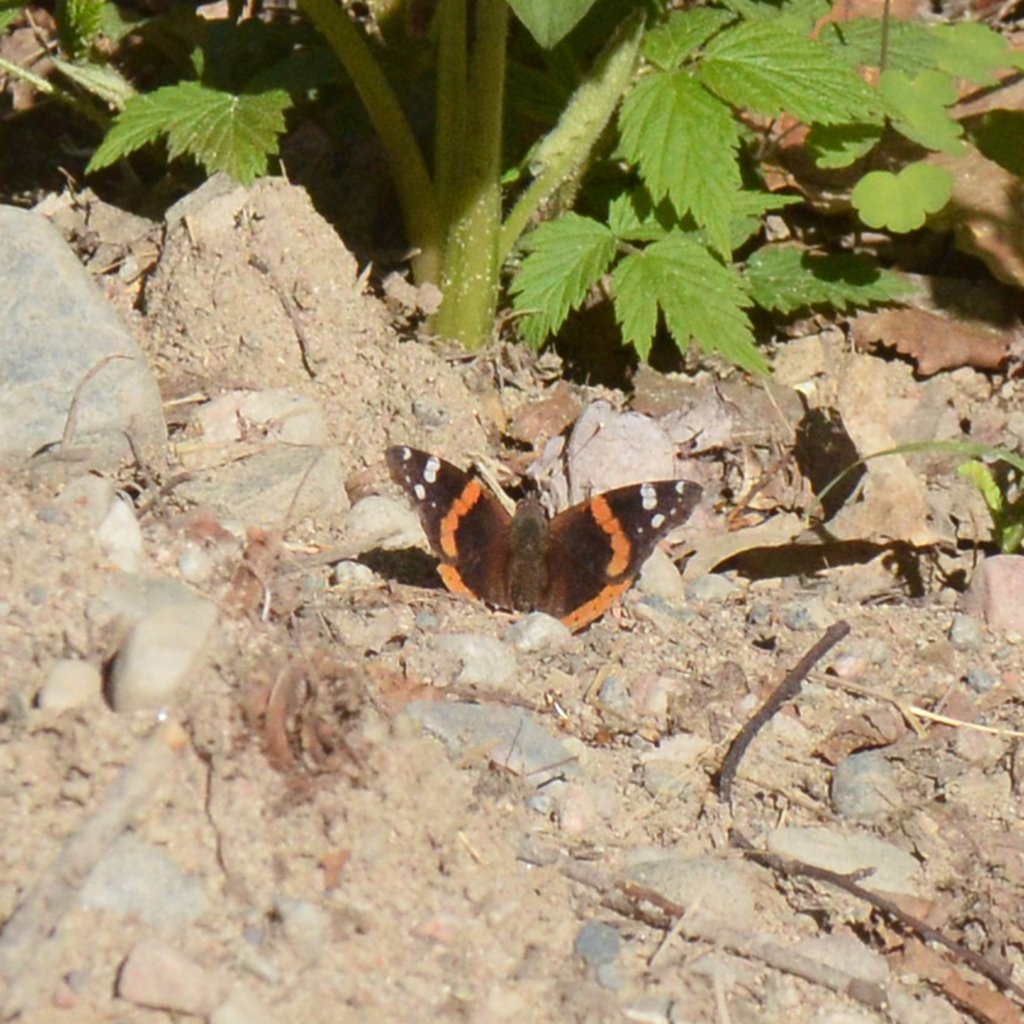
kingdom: Animalia
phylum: Arthropoda
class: Insecta
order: Lepidoptera
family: Nymphalidae
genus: Vanessa
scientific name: Vanessa atalanta
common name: Red Admiral
